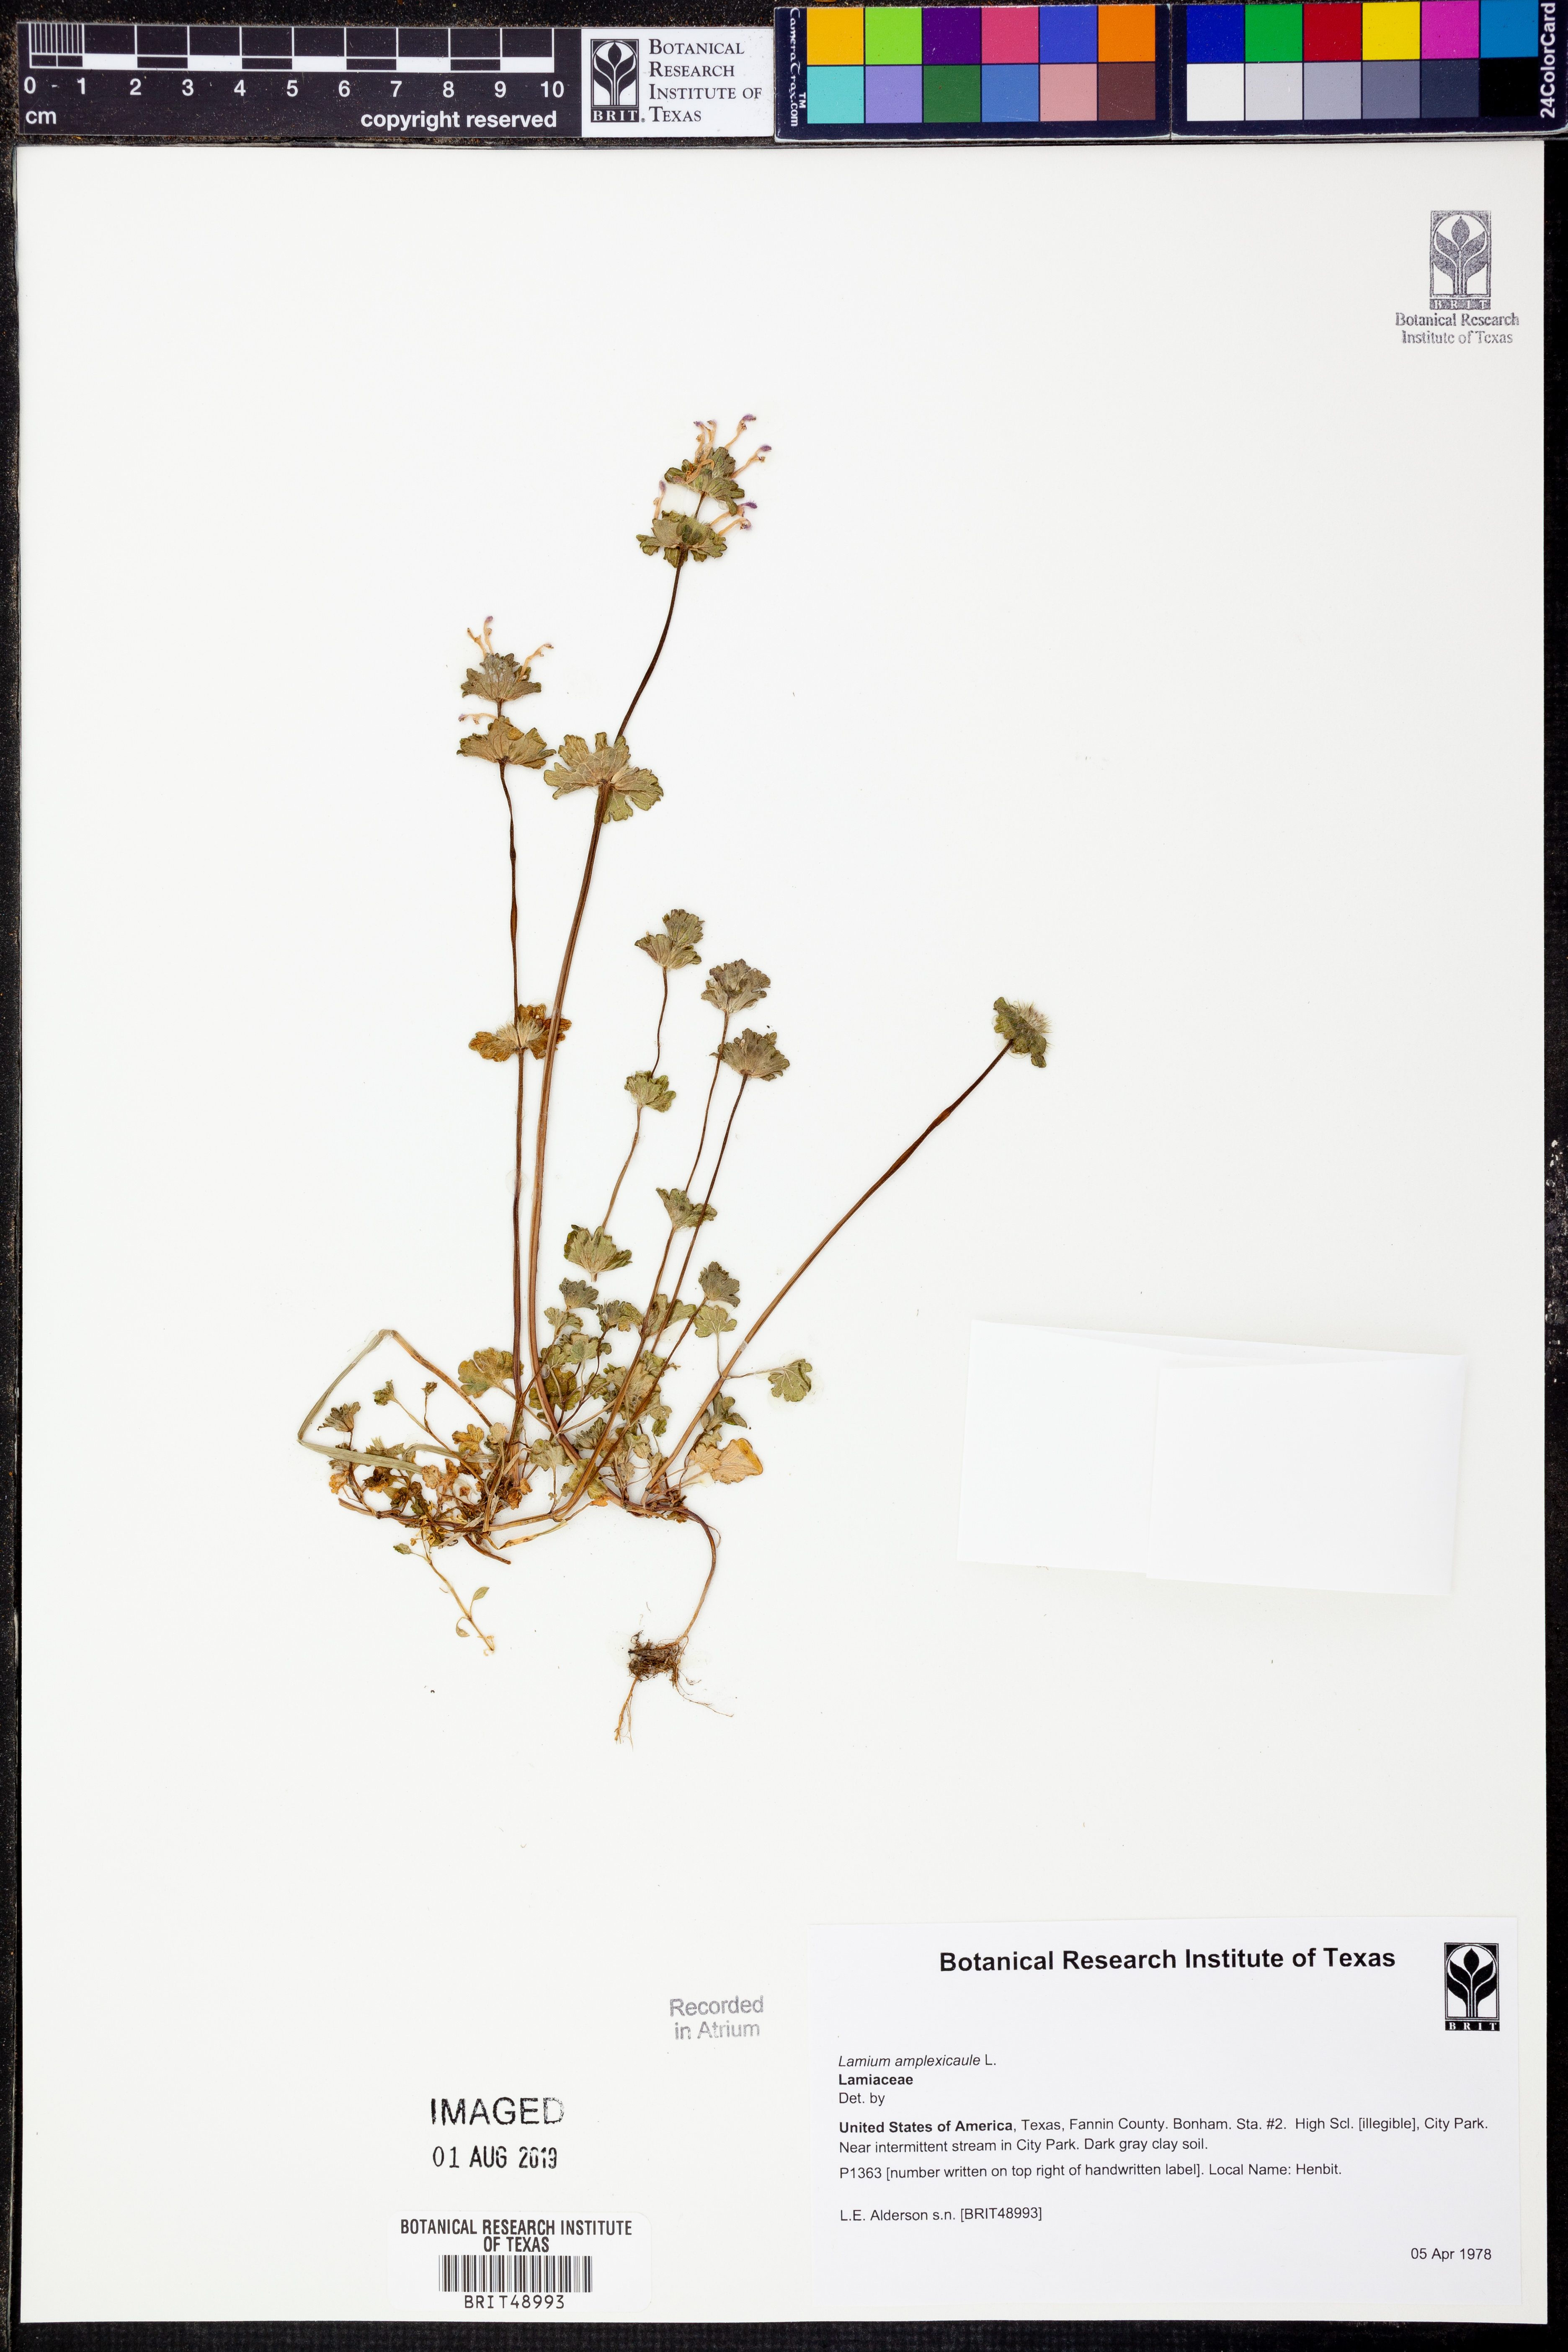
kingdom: Plantae
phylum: Tracheophyta
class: Magnoliopsida
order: Lamiales
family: Lamiaceae
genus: Lamium
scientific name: Lamium amplexicaule
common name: Henbit dead-nettle
